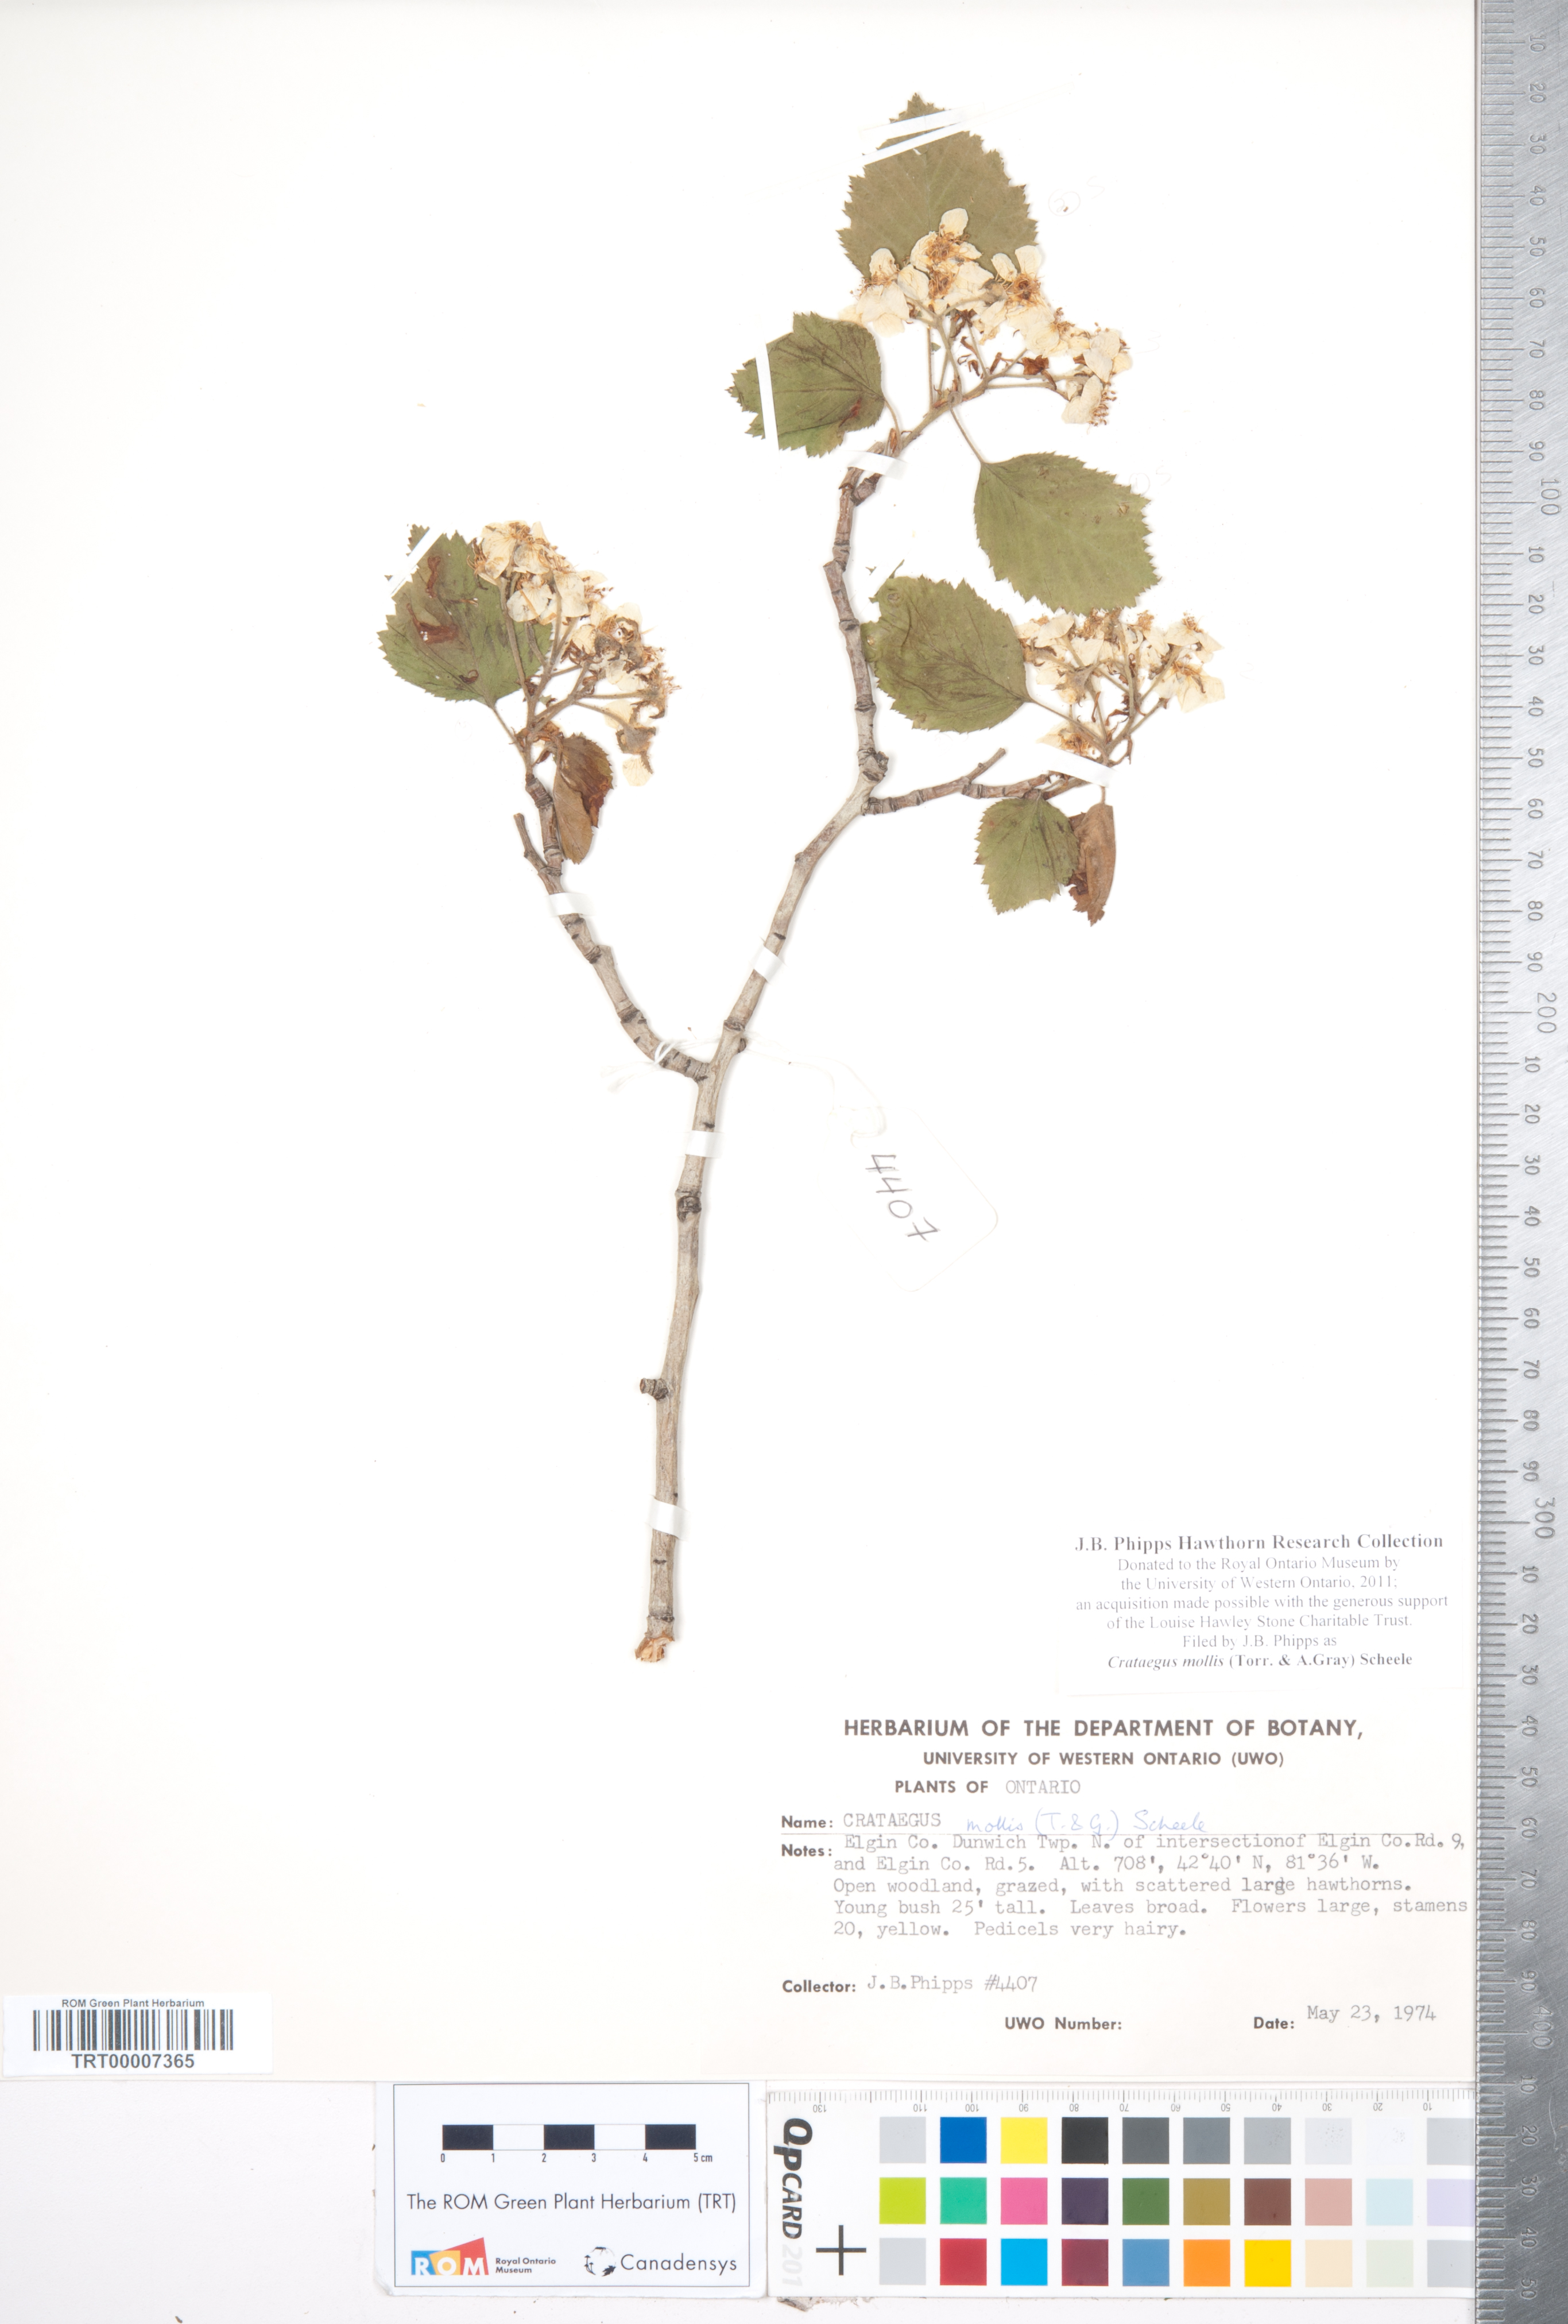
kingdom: Plantae
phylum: Tracheophyta
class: Magnoliopsida
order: Rosales
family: Rosaceae
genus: Crataegus
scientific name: Crataegus mollis
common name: Downy hawthorn
